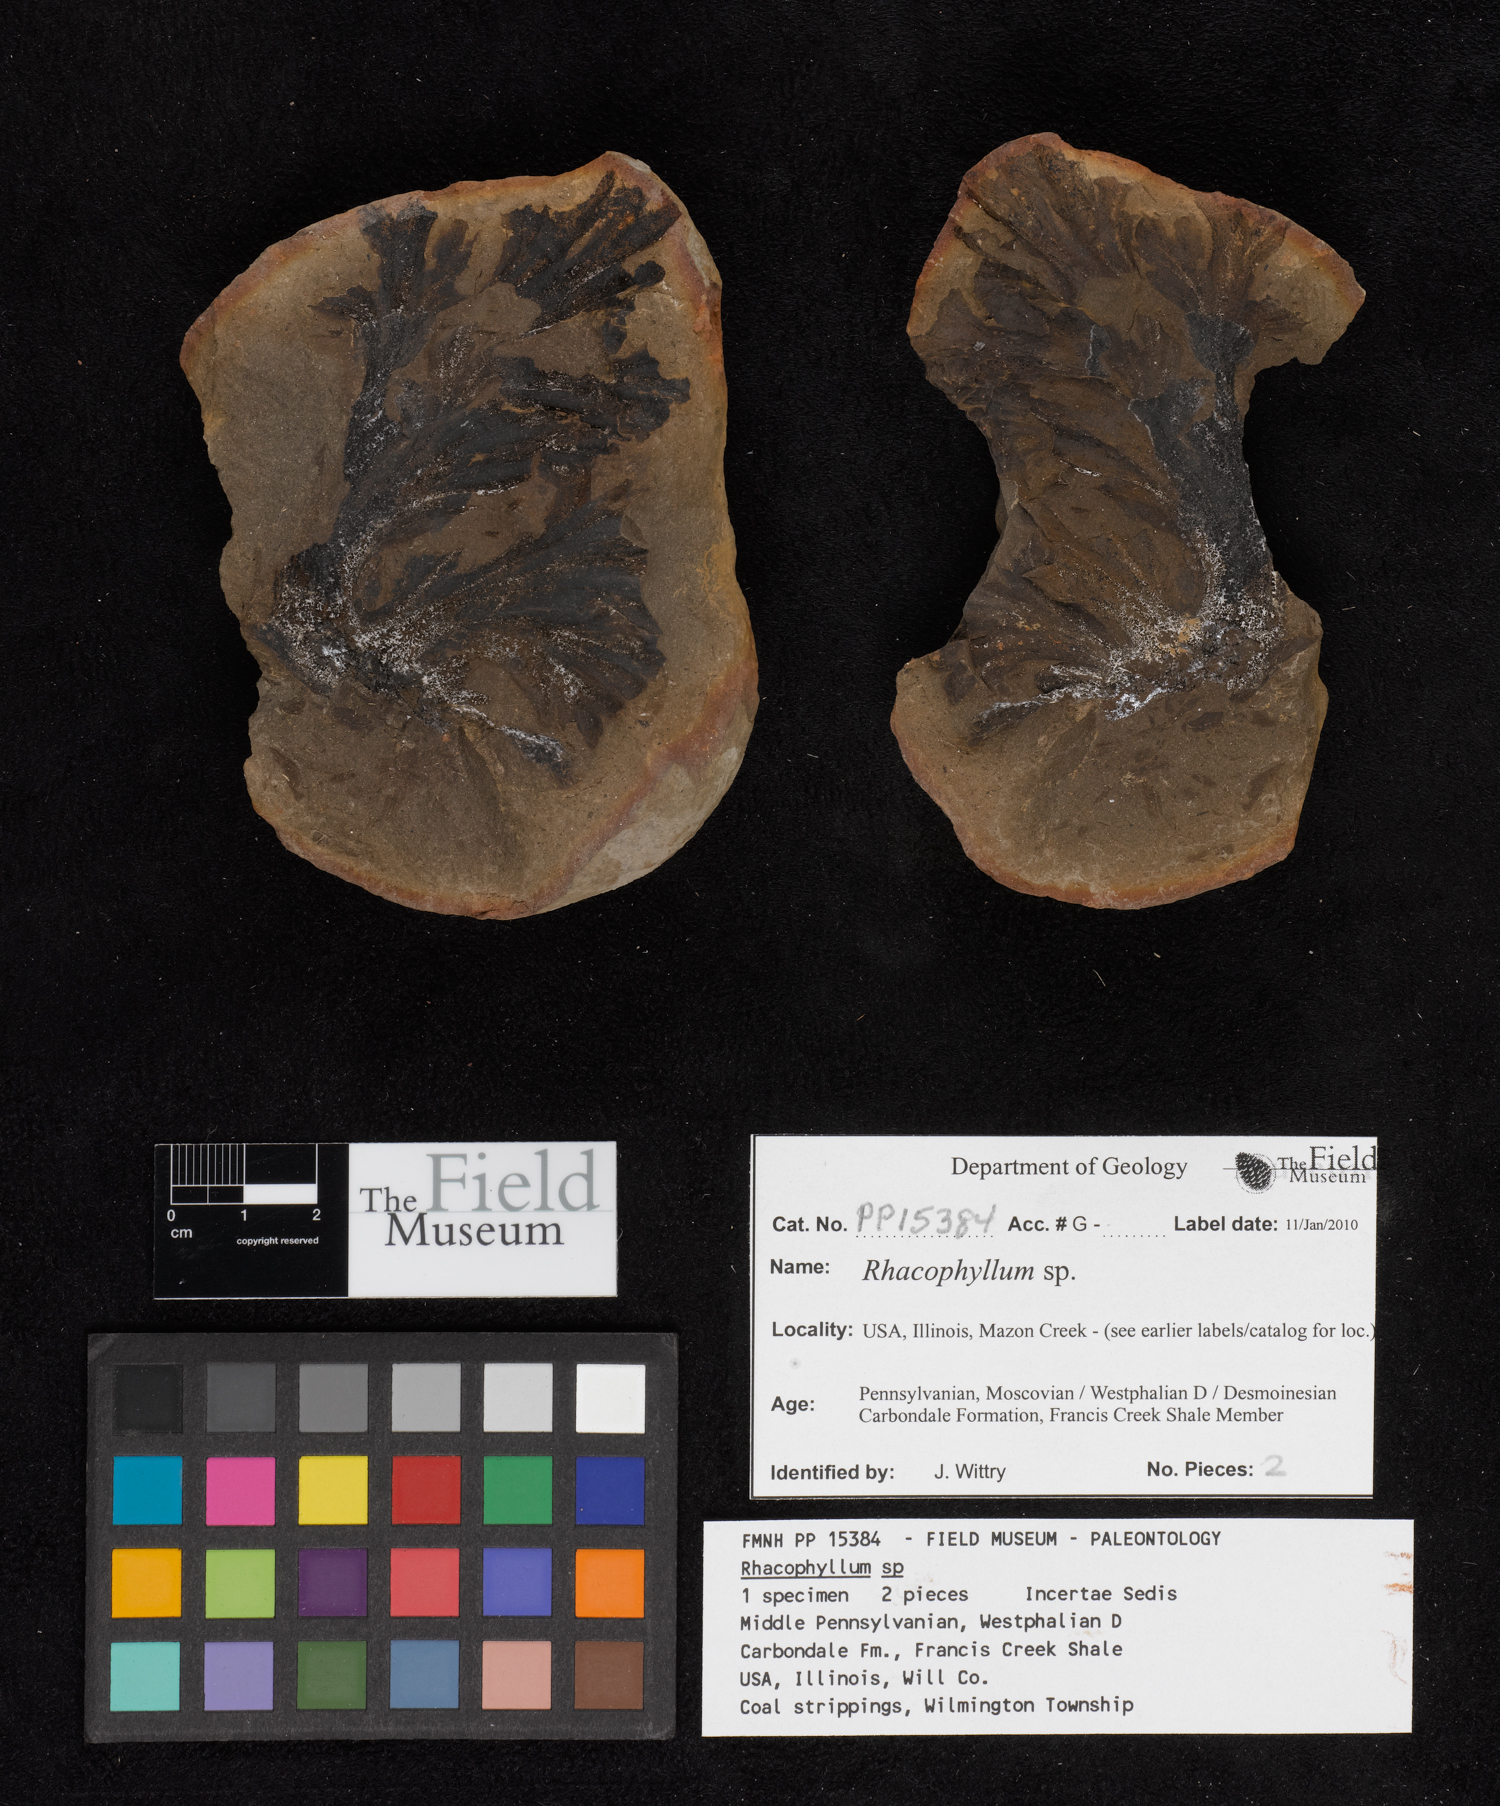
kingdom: Plantae
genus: Rhacophyllum
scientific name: Rhacophyllum
